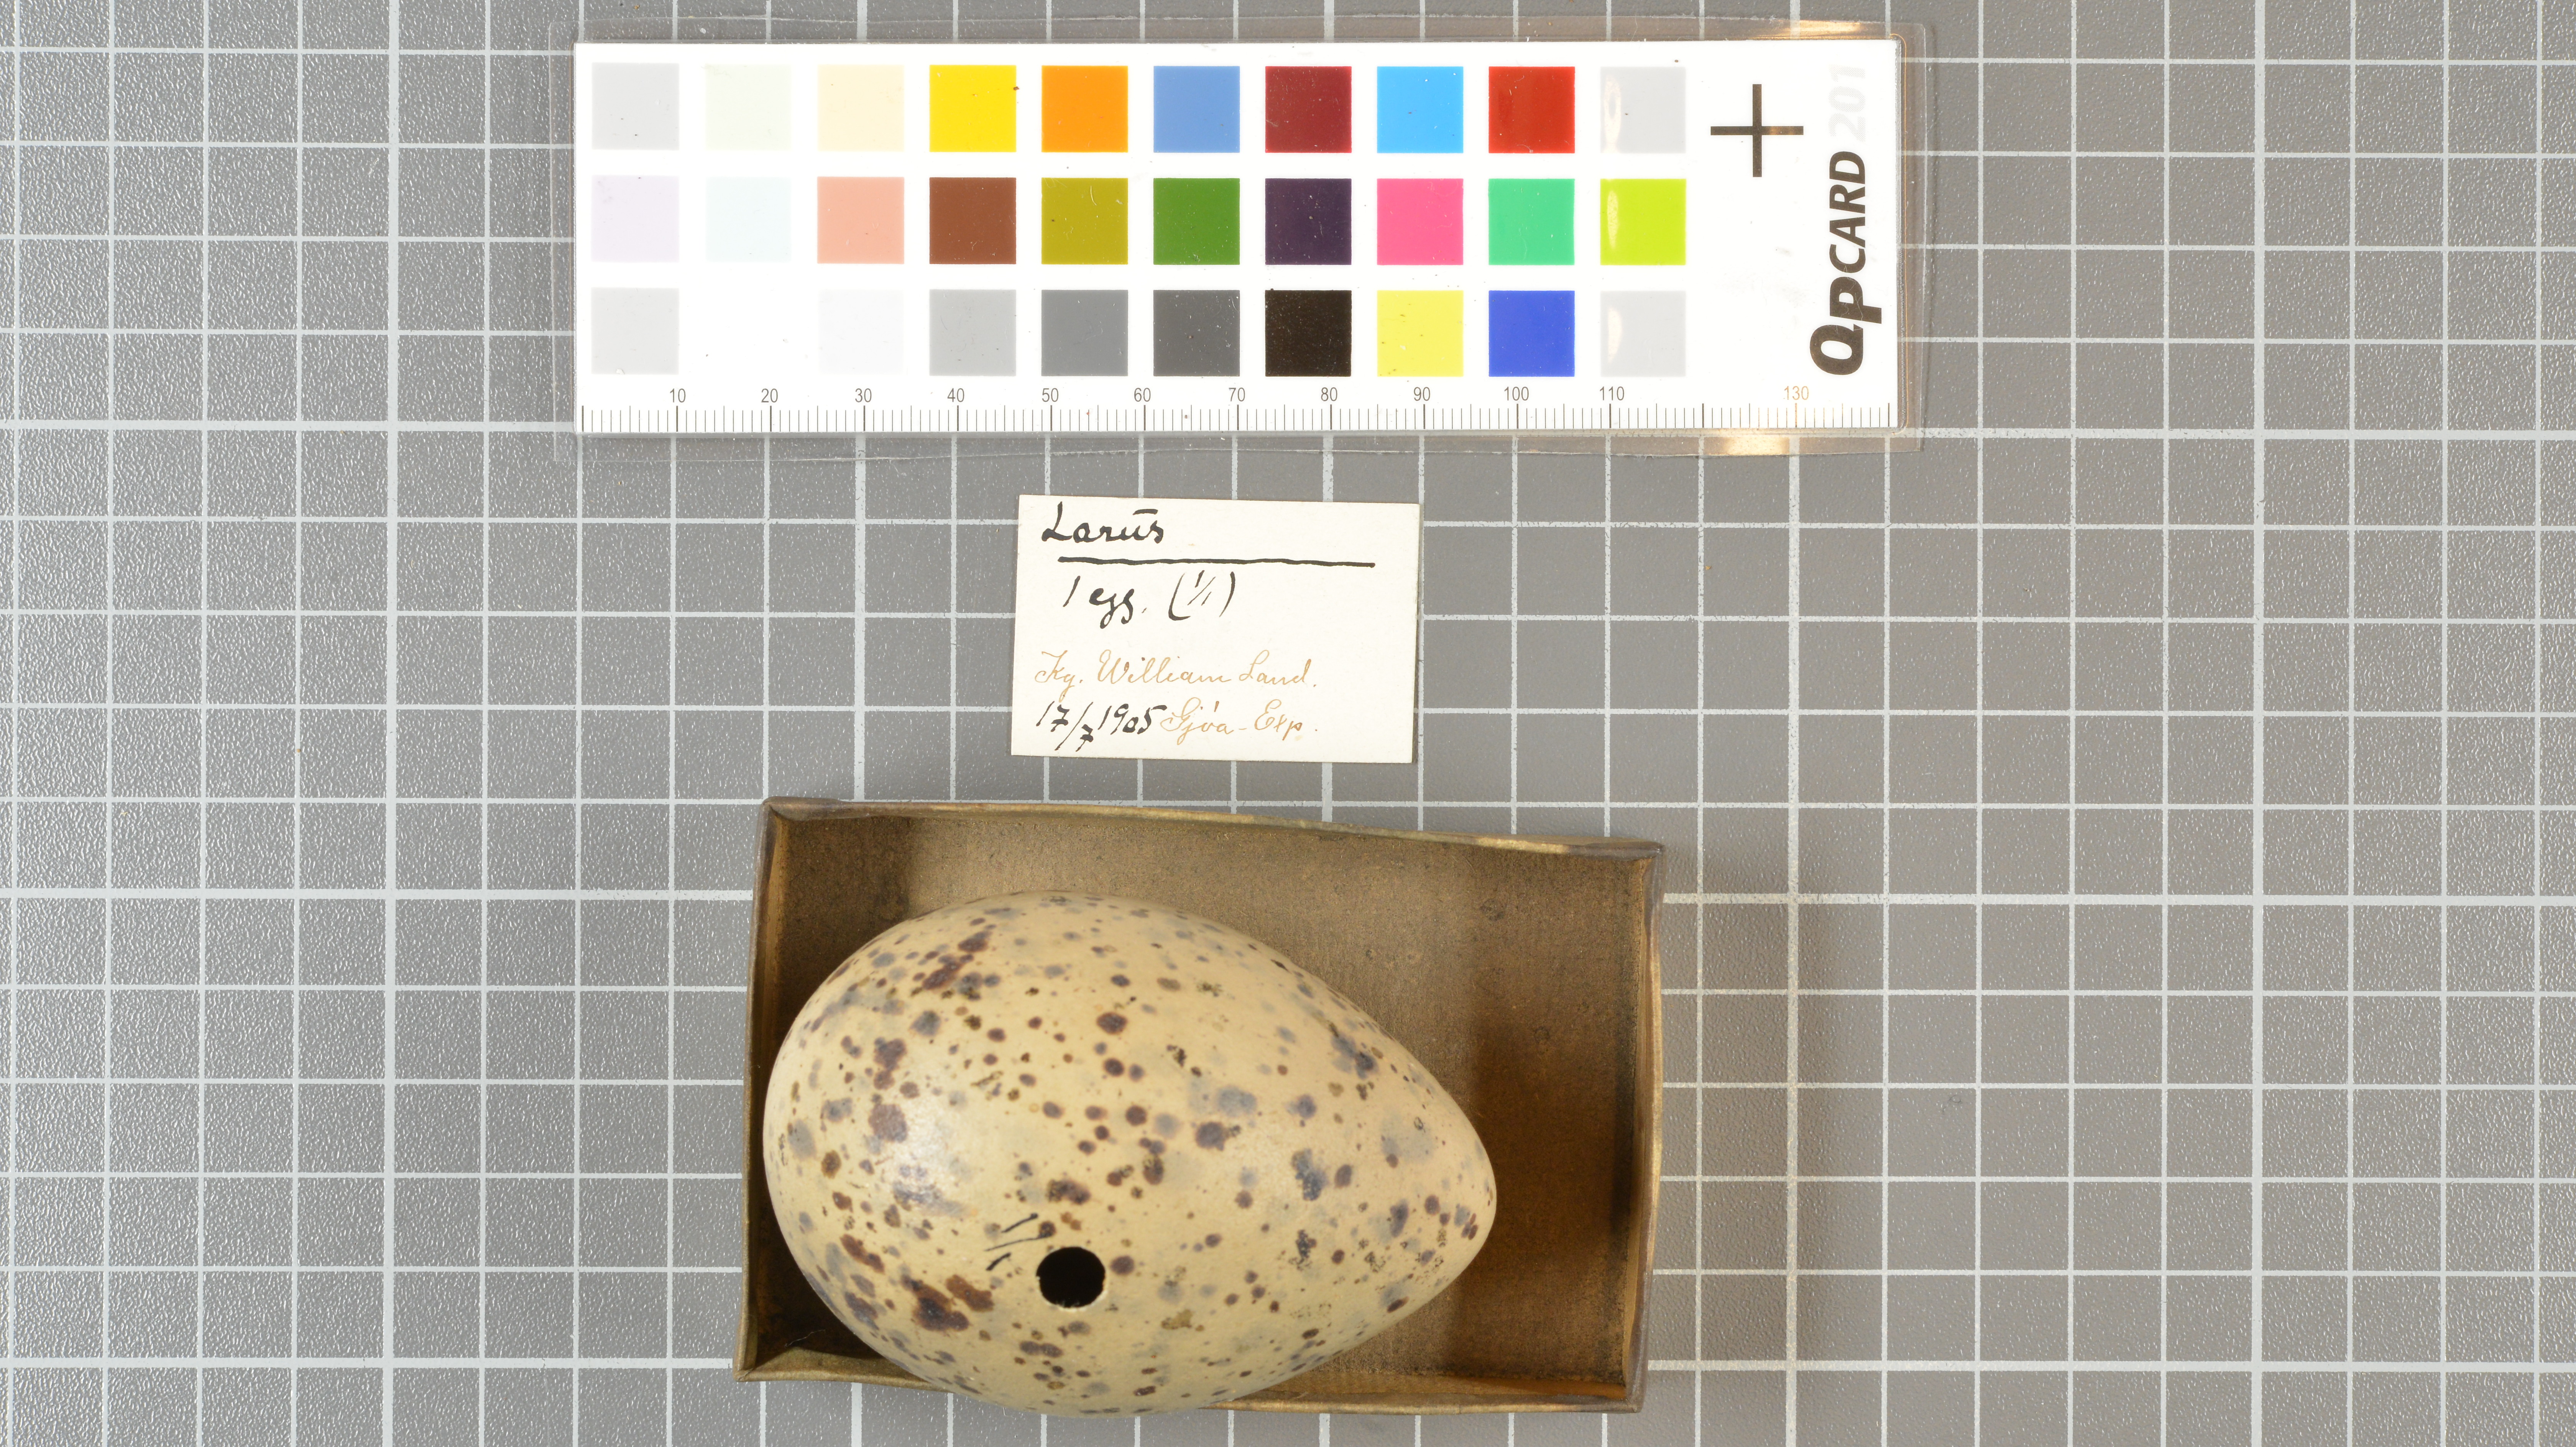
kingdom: Animalia
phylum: Chordata
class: Aves
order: Charadriiformes
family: Laridae
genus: Larus
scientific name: Larus
